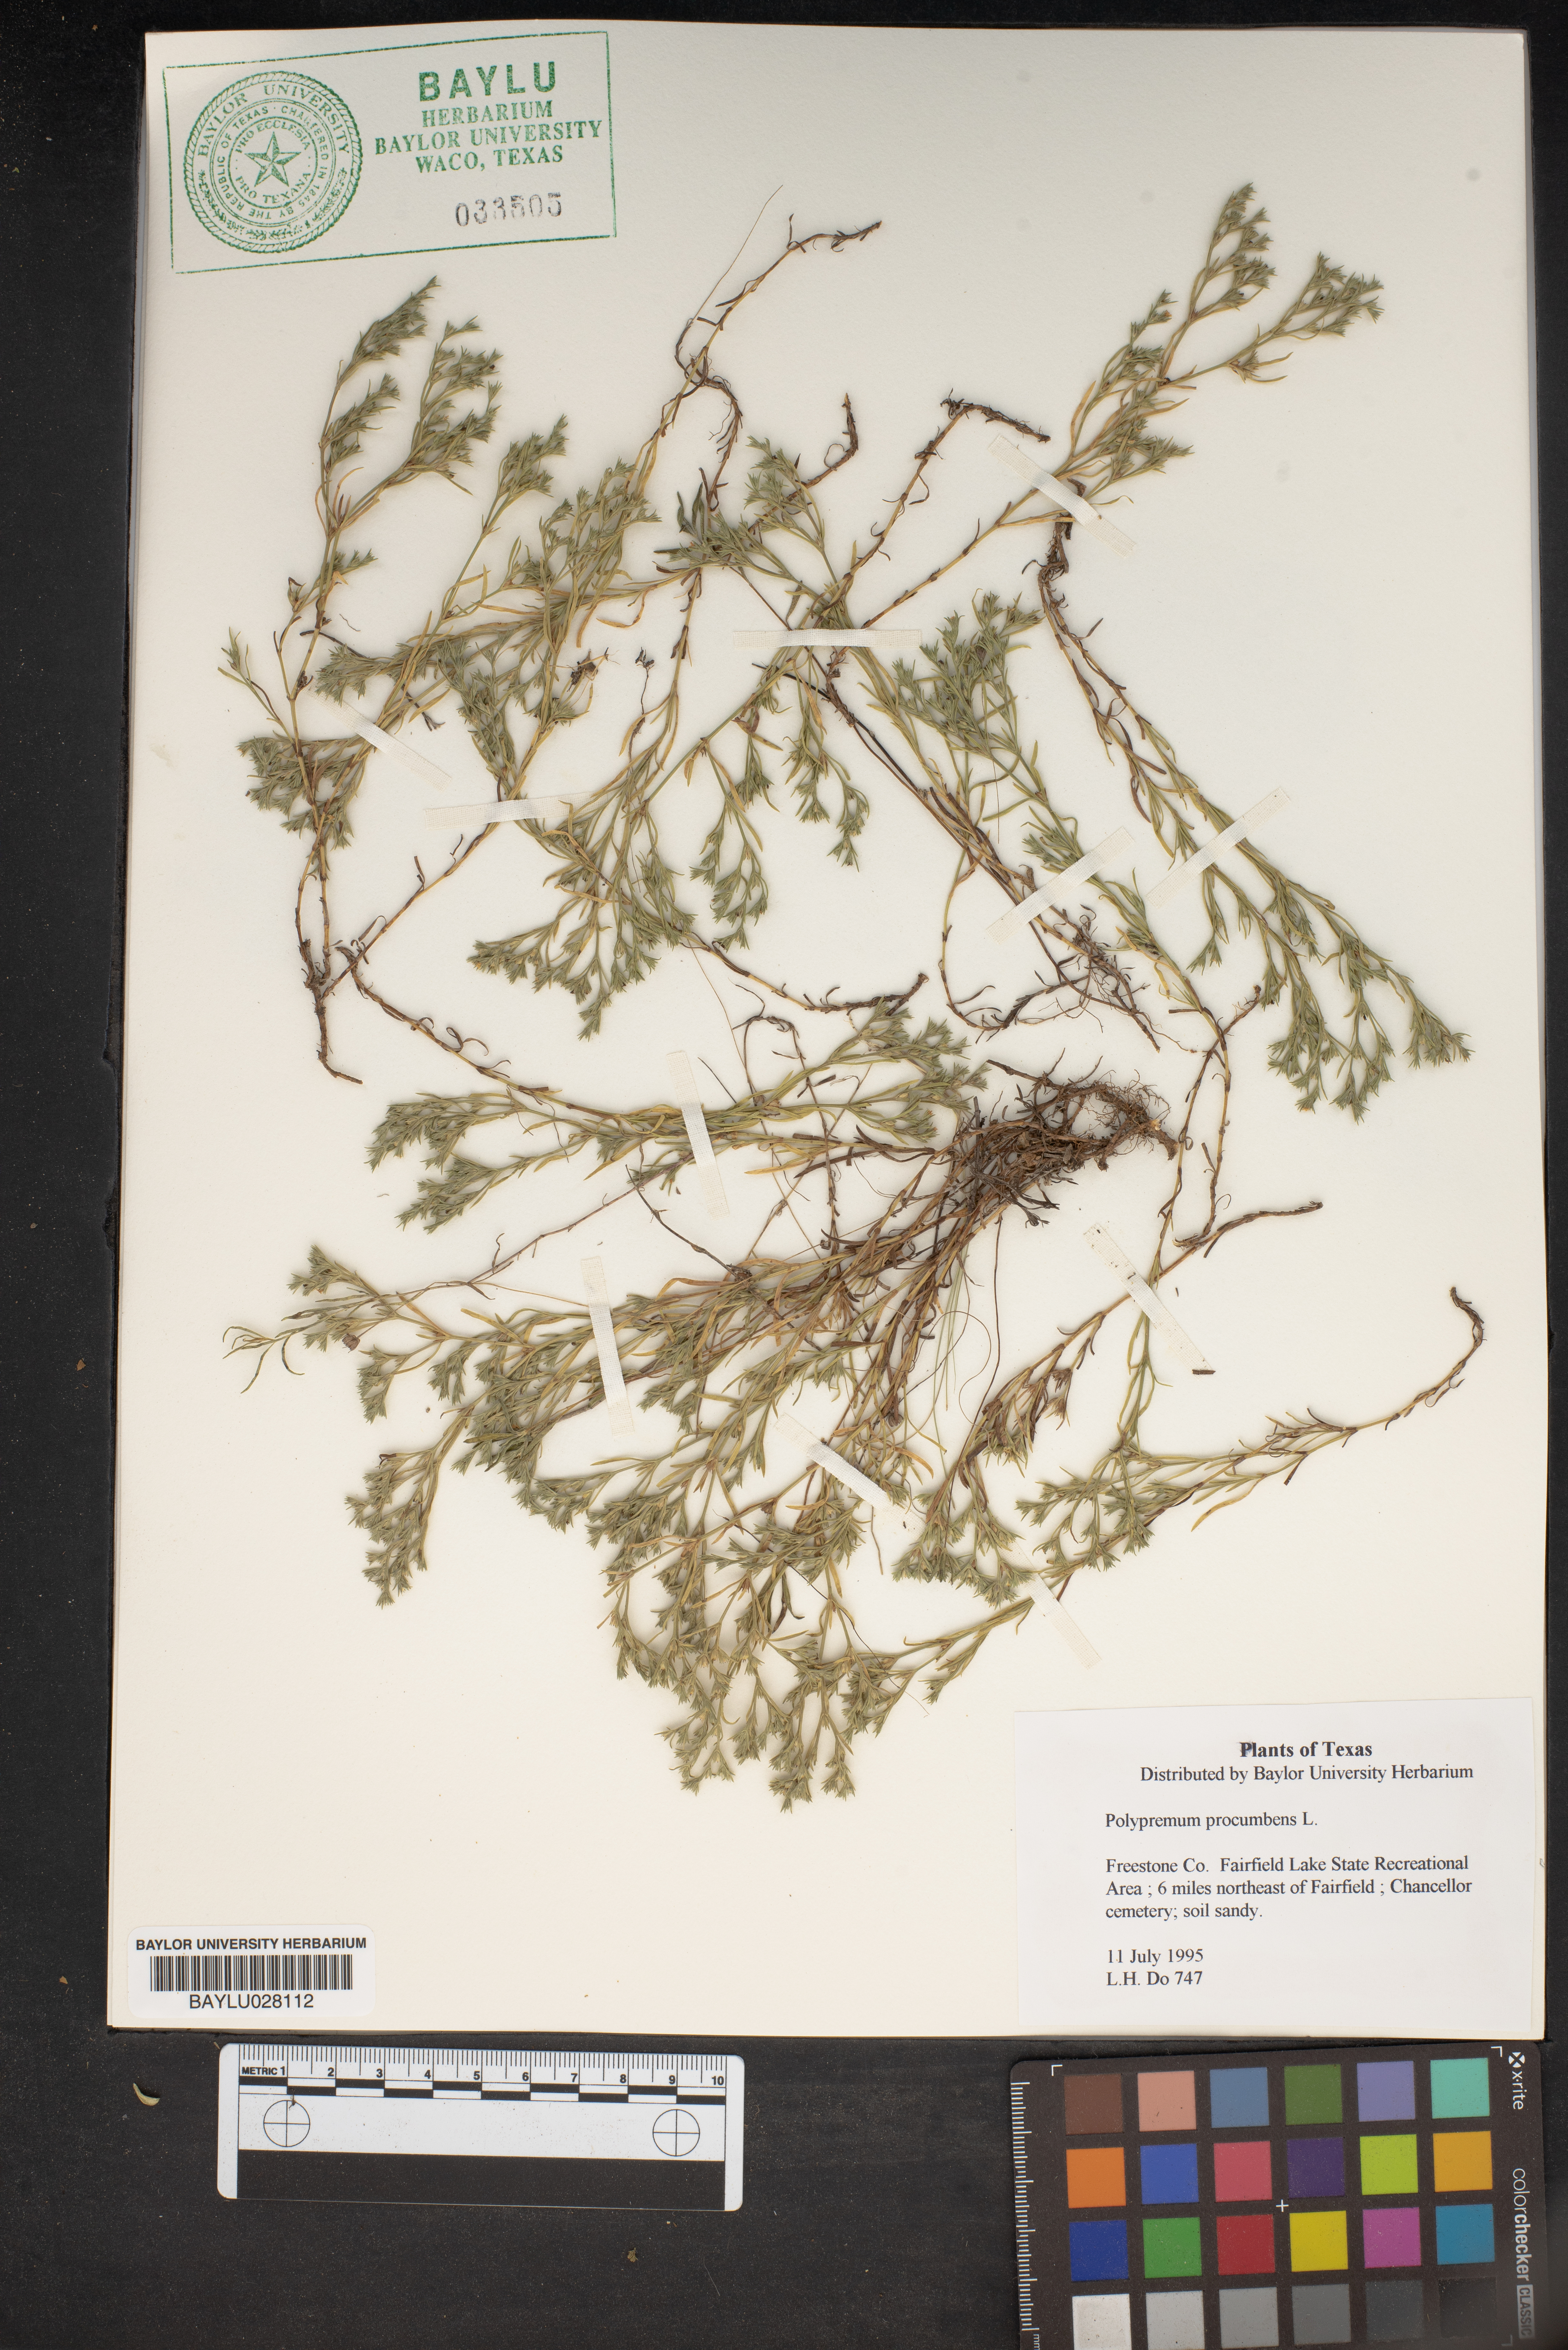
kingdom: Plantae
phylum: Tracheophyta
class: Magnoliopsida
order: Lamiales
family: Tetrachondraceae
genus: Polypremum
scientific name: Polypremum procumbens
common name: Juniper-leaf
